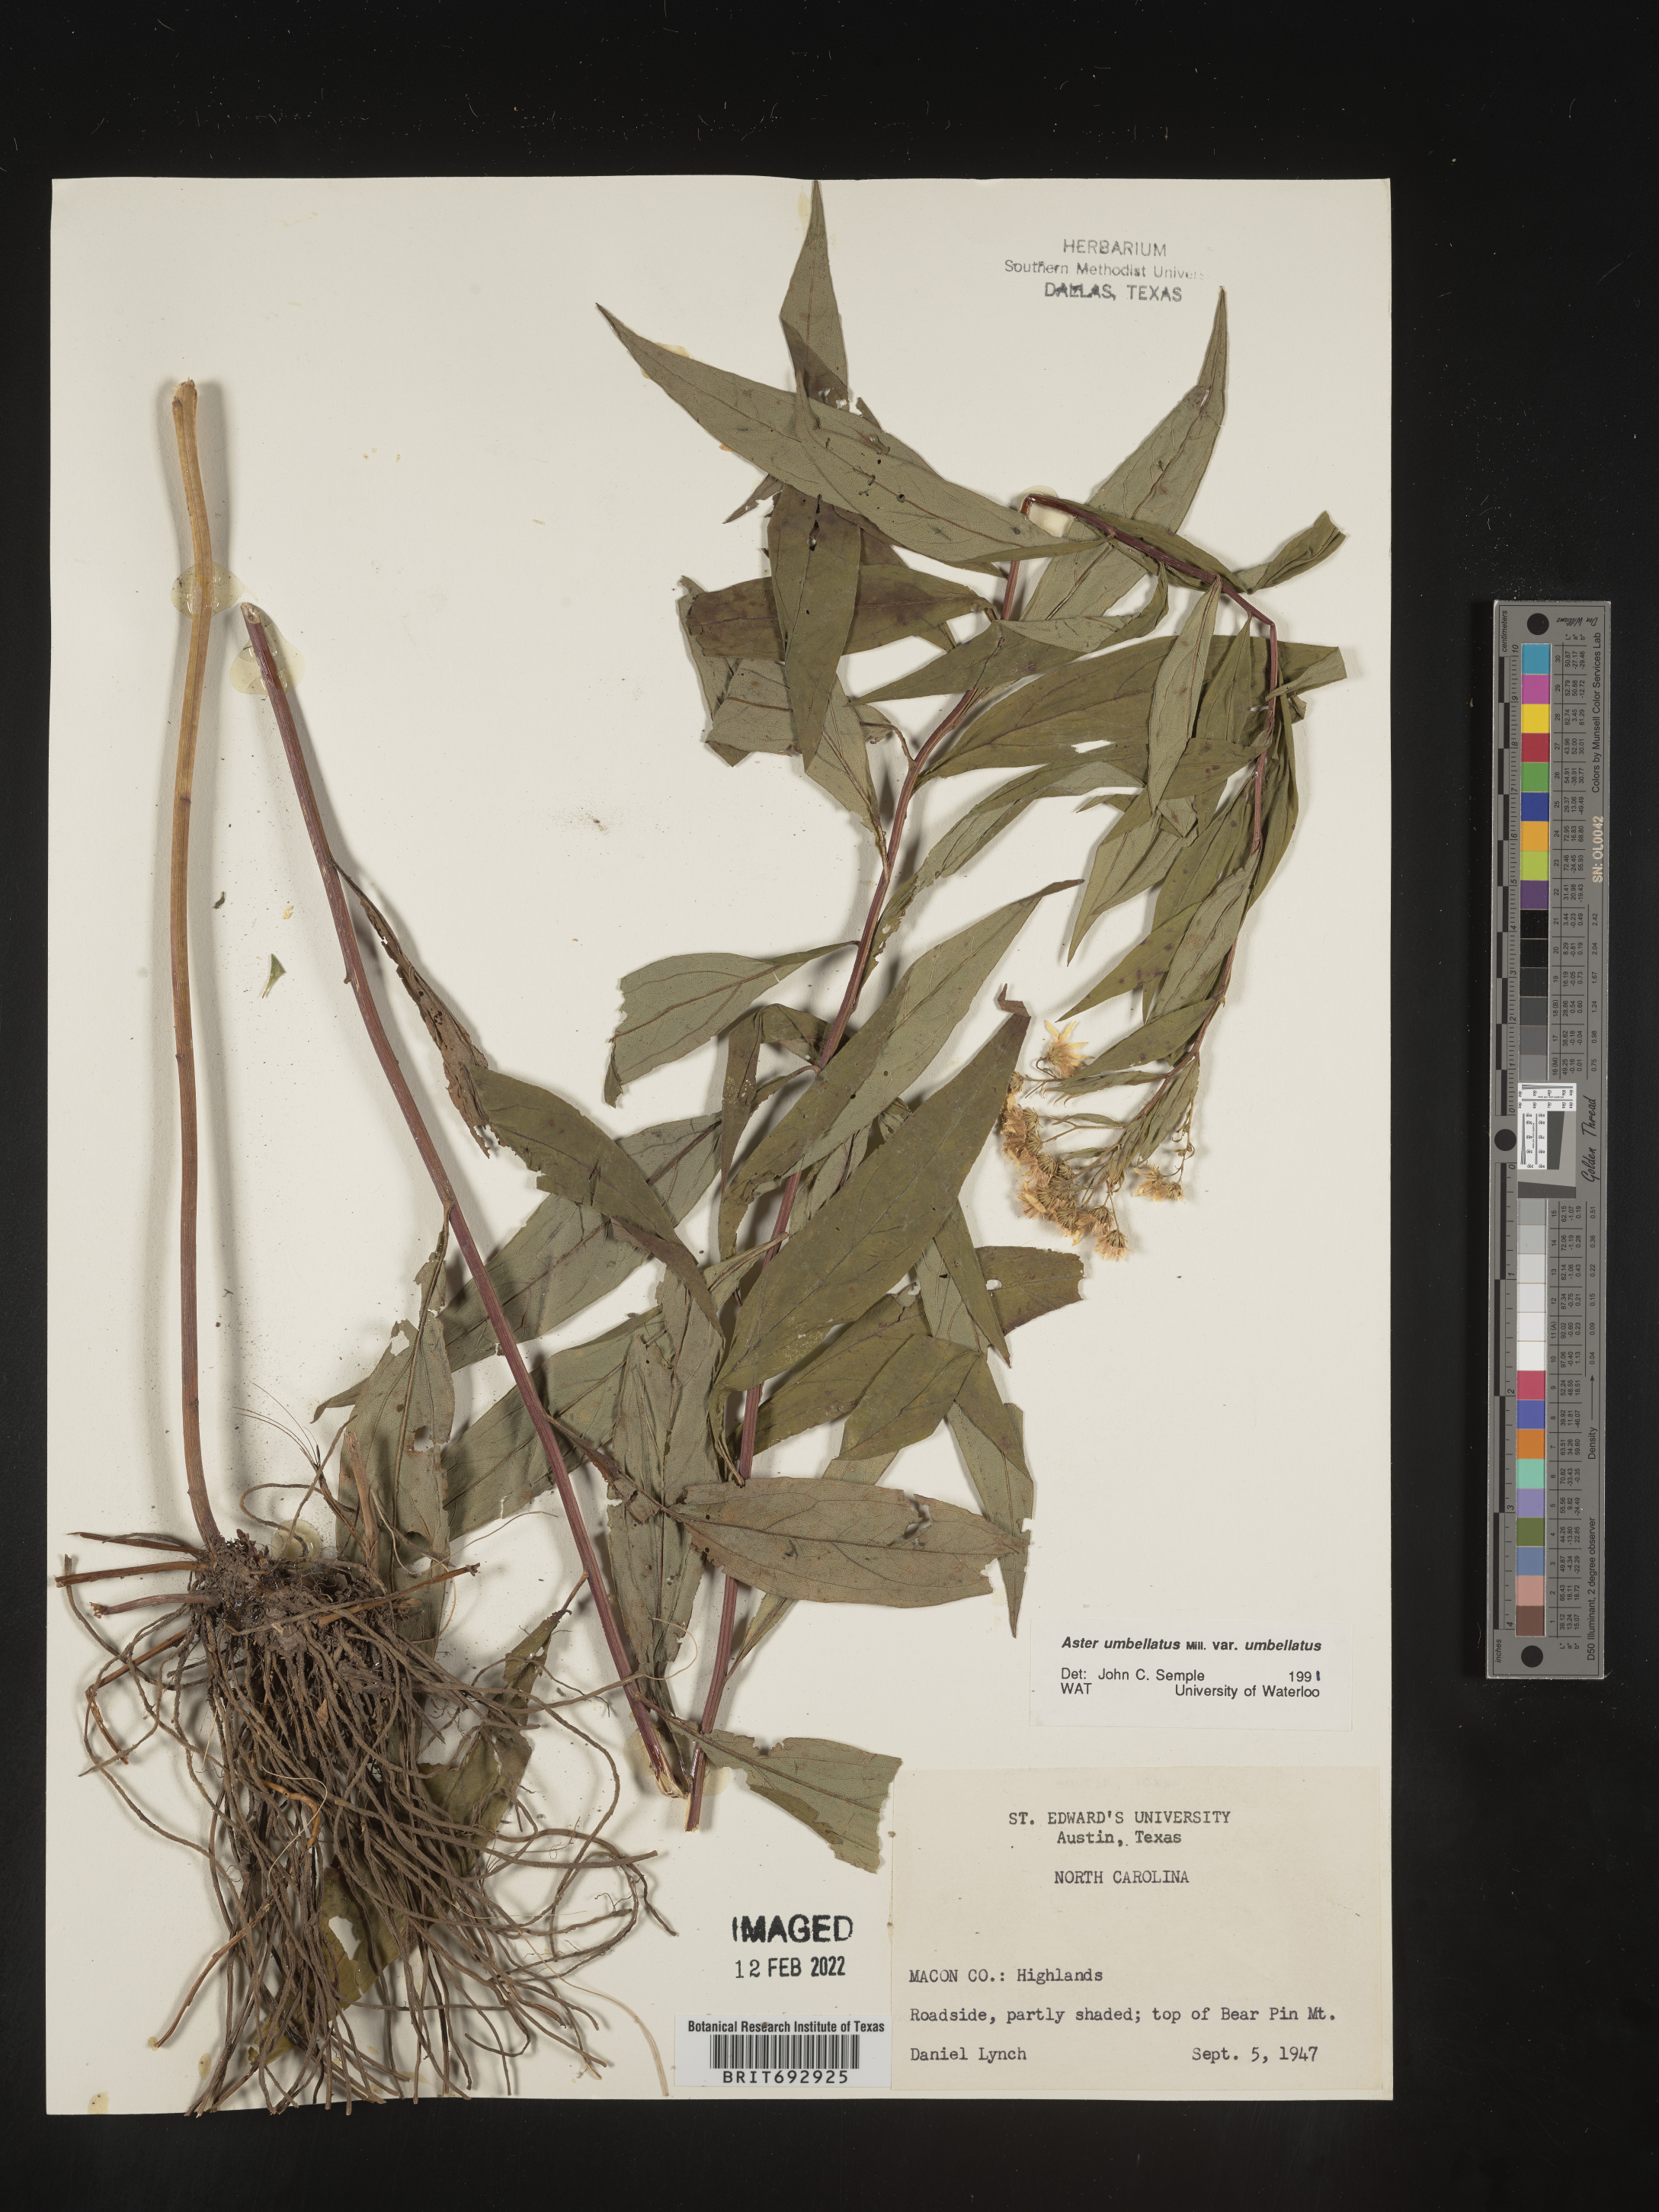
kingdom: Plantae
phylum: Tracheophyta
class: Magnoliopsida
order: Asterales
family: Asteraceae
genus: Doellingeria
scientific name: Doellingeria umbellata
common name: Flat-top white aster
